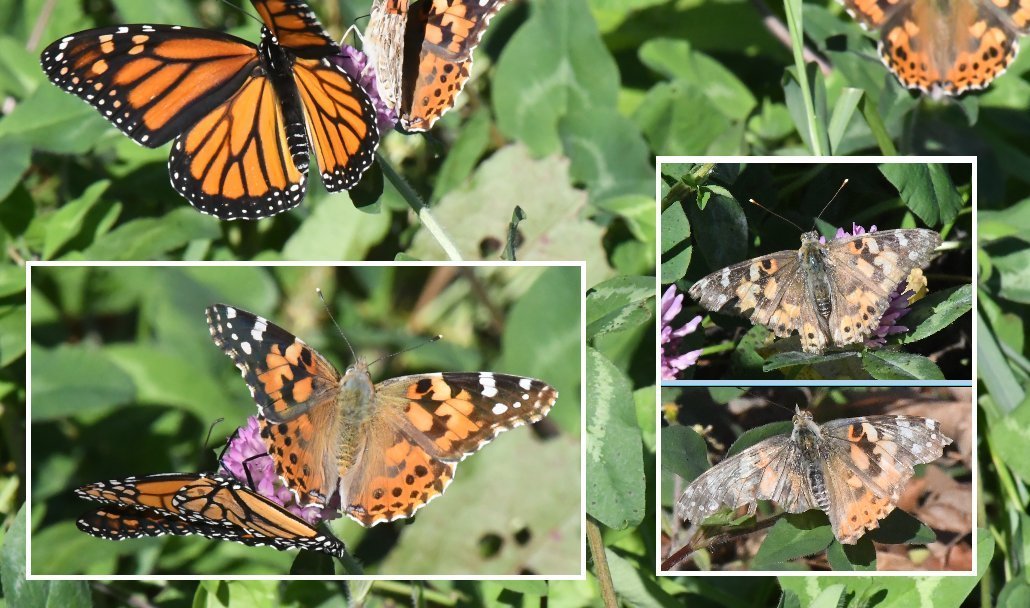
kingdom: Animalia
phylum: Arthropoda
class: Insecta
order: Lepidoptera
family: Nymphalidae
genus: Vanessa
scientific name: Vanessa cardui
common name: Painted Lady
